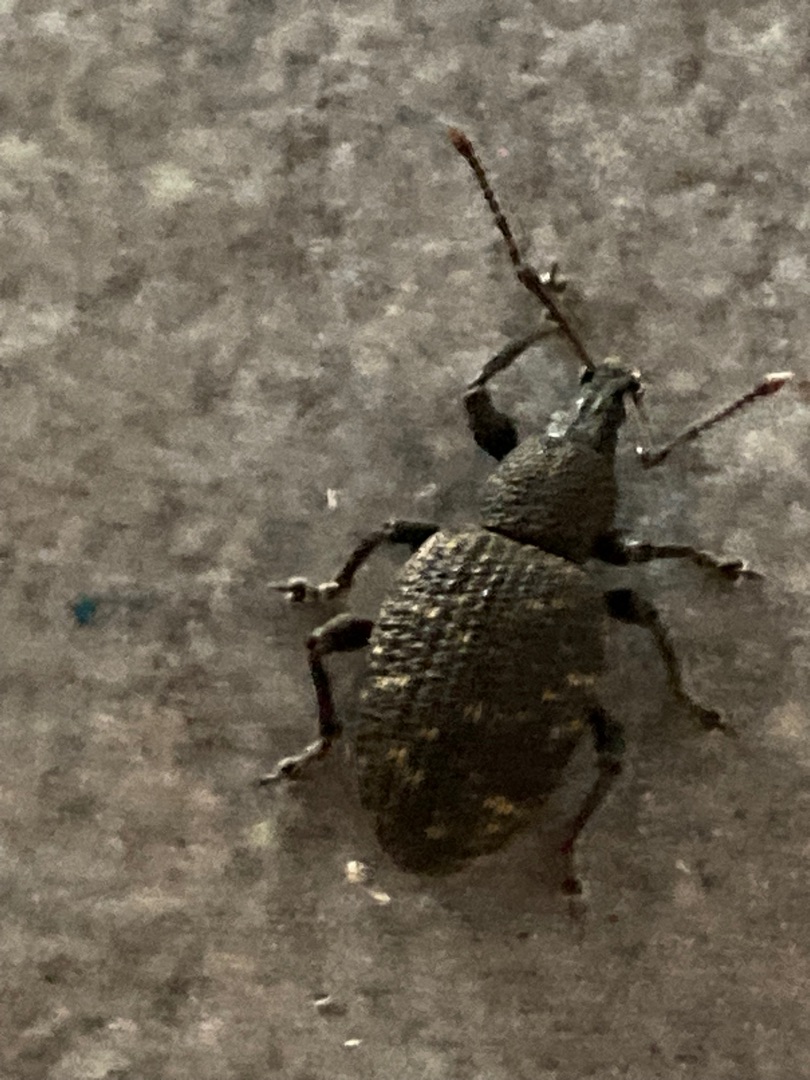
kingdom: Animalia
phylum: Arthropoda
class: Insecta
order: Coleoptera
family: Curculionidae
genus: Otiorhynchus
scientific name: Otiorhynchus sulcatus
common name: Væksthussnudebille
